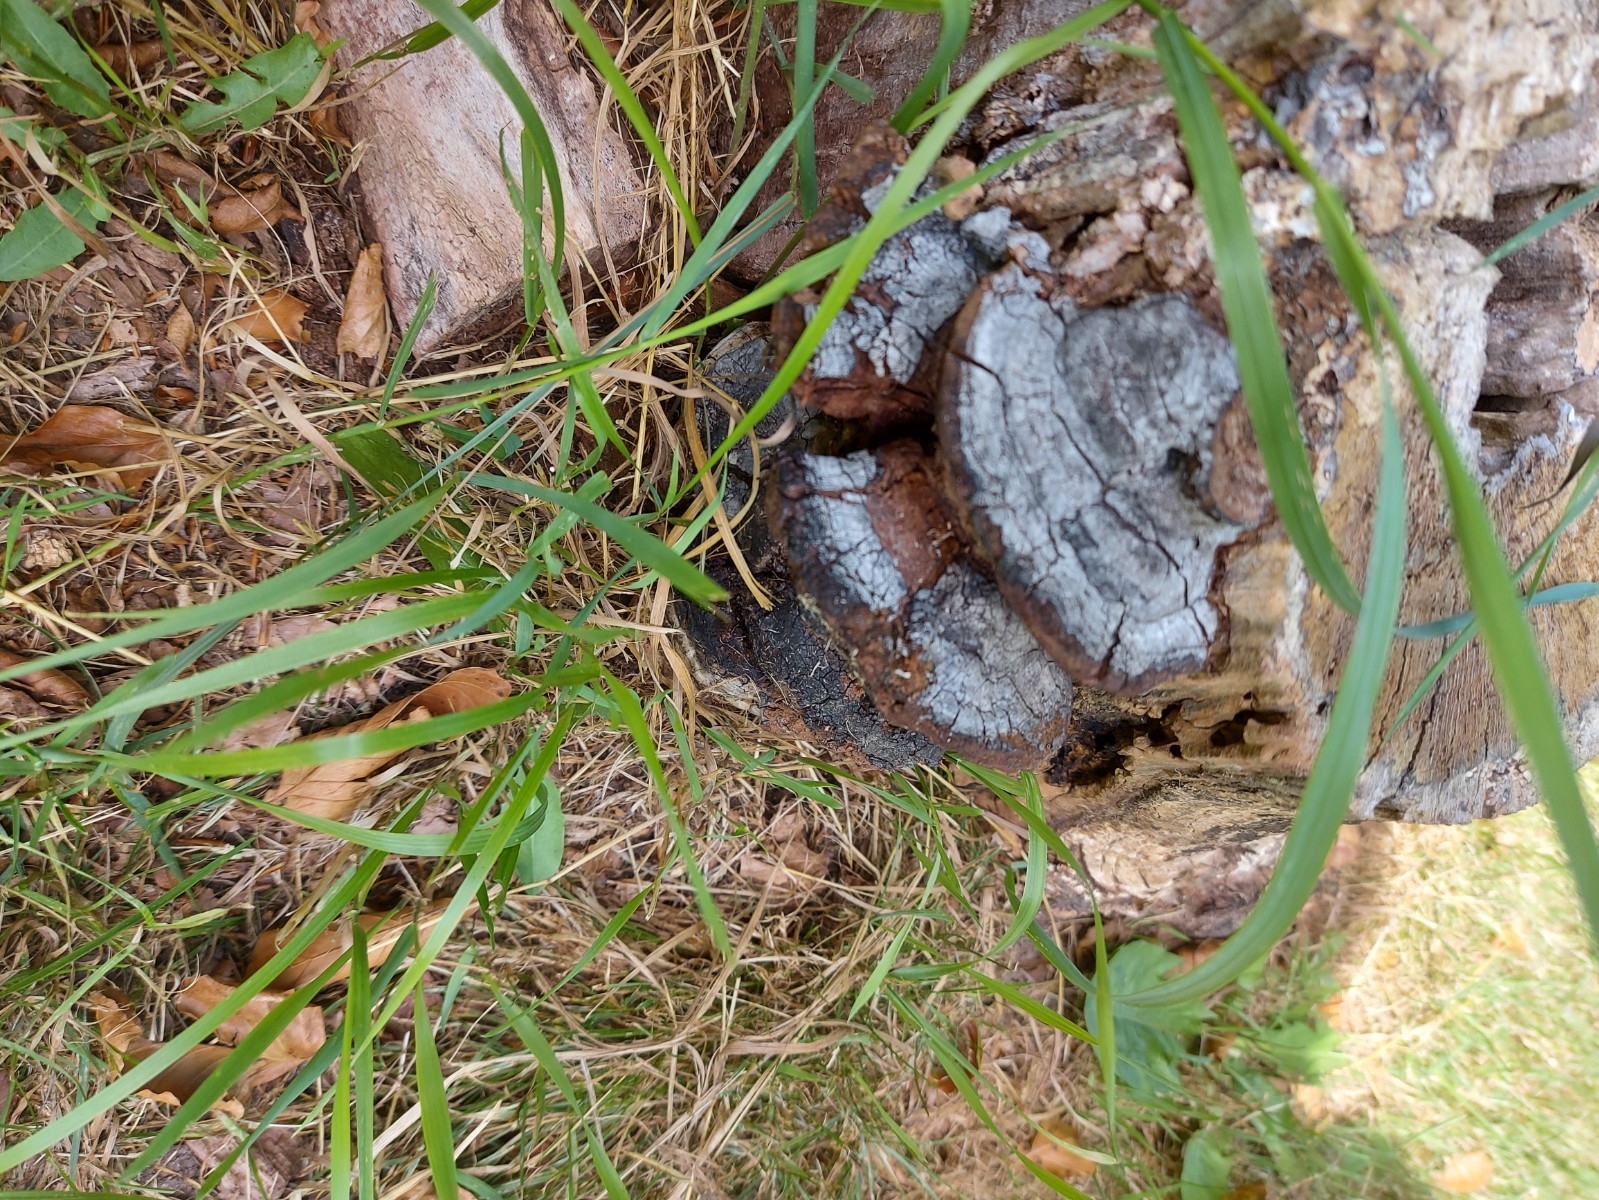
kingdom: Fungi
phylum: Basidiomycota
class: Agaricomycetes
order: Hymenochaetales
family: Hymenochaetaceae
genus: Phellinus
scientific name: Phellinus
